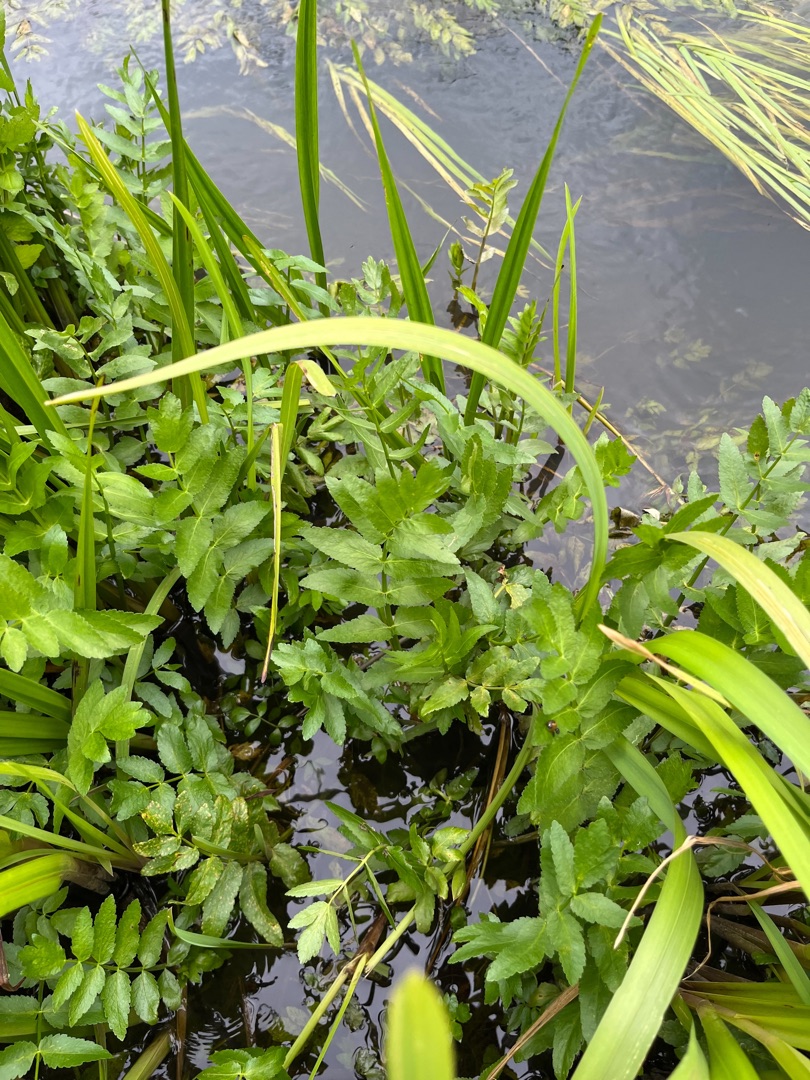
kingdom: Plantae
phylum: Tracheophyta
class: Magnoliopsida
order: Apiales
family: Apiaceae
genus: Berula
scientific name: Berula erecta
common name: Sideskærm
